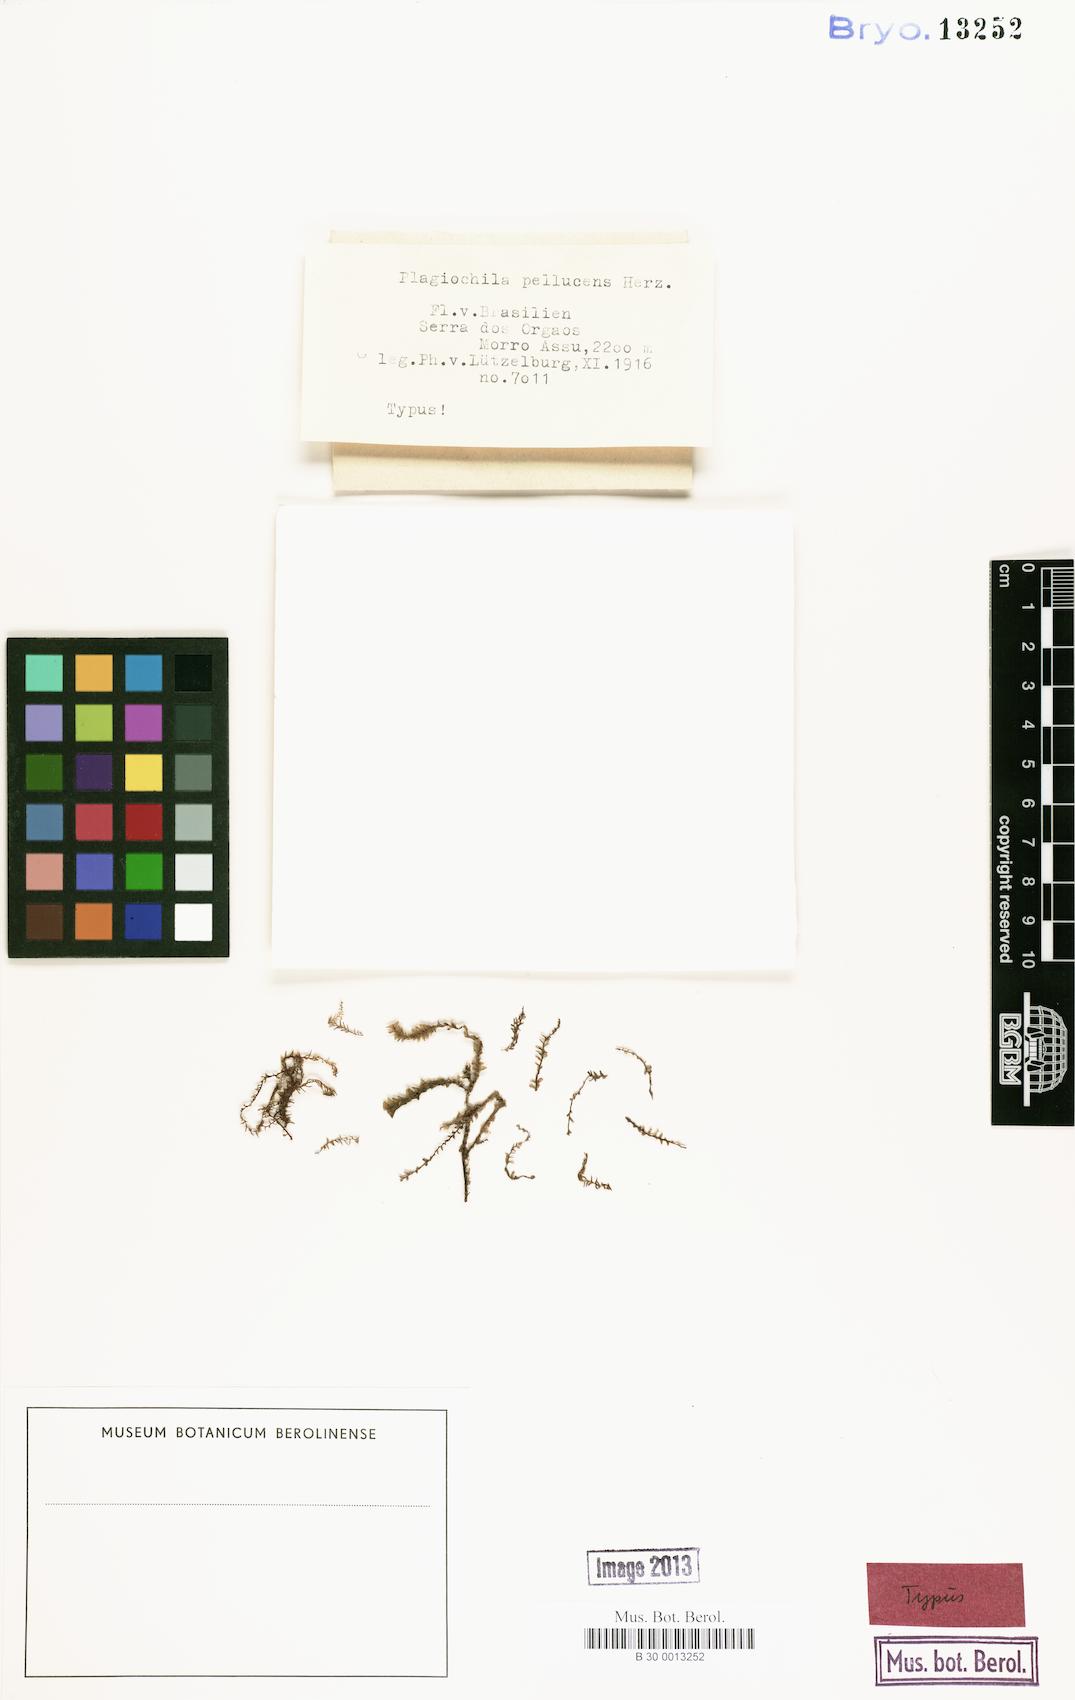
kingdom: Plantae
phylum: Marchantiophyta
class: Jungermanniopsida
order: Jungermanniales
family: Plagiochilaceae
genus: Plagiochila
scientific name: Plagiochila pellucida
